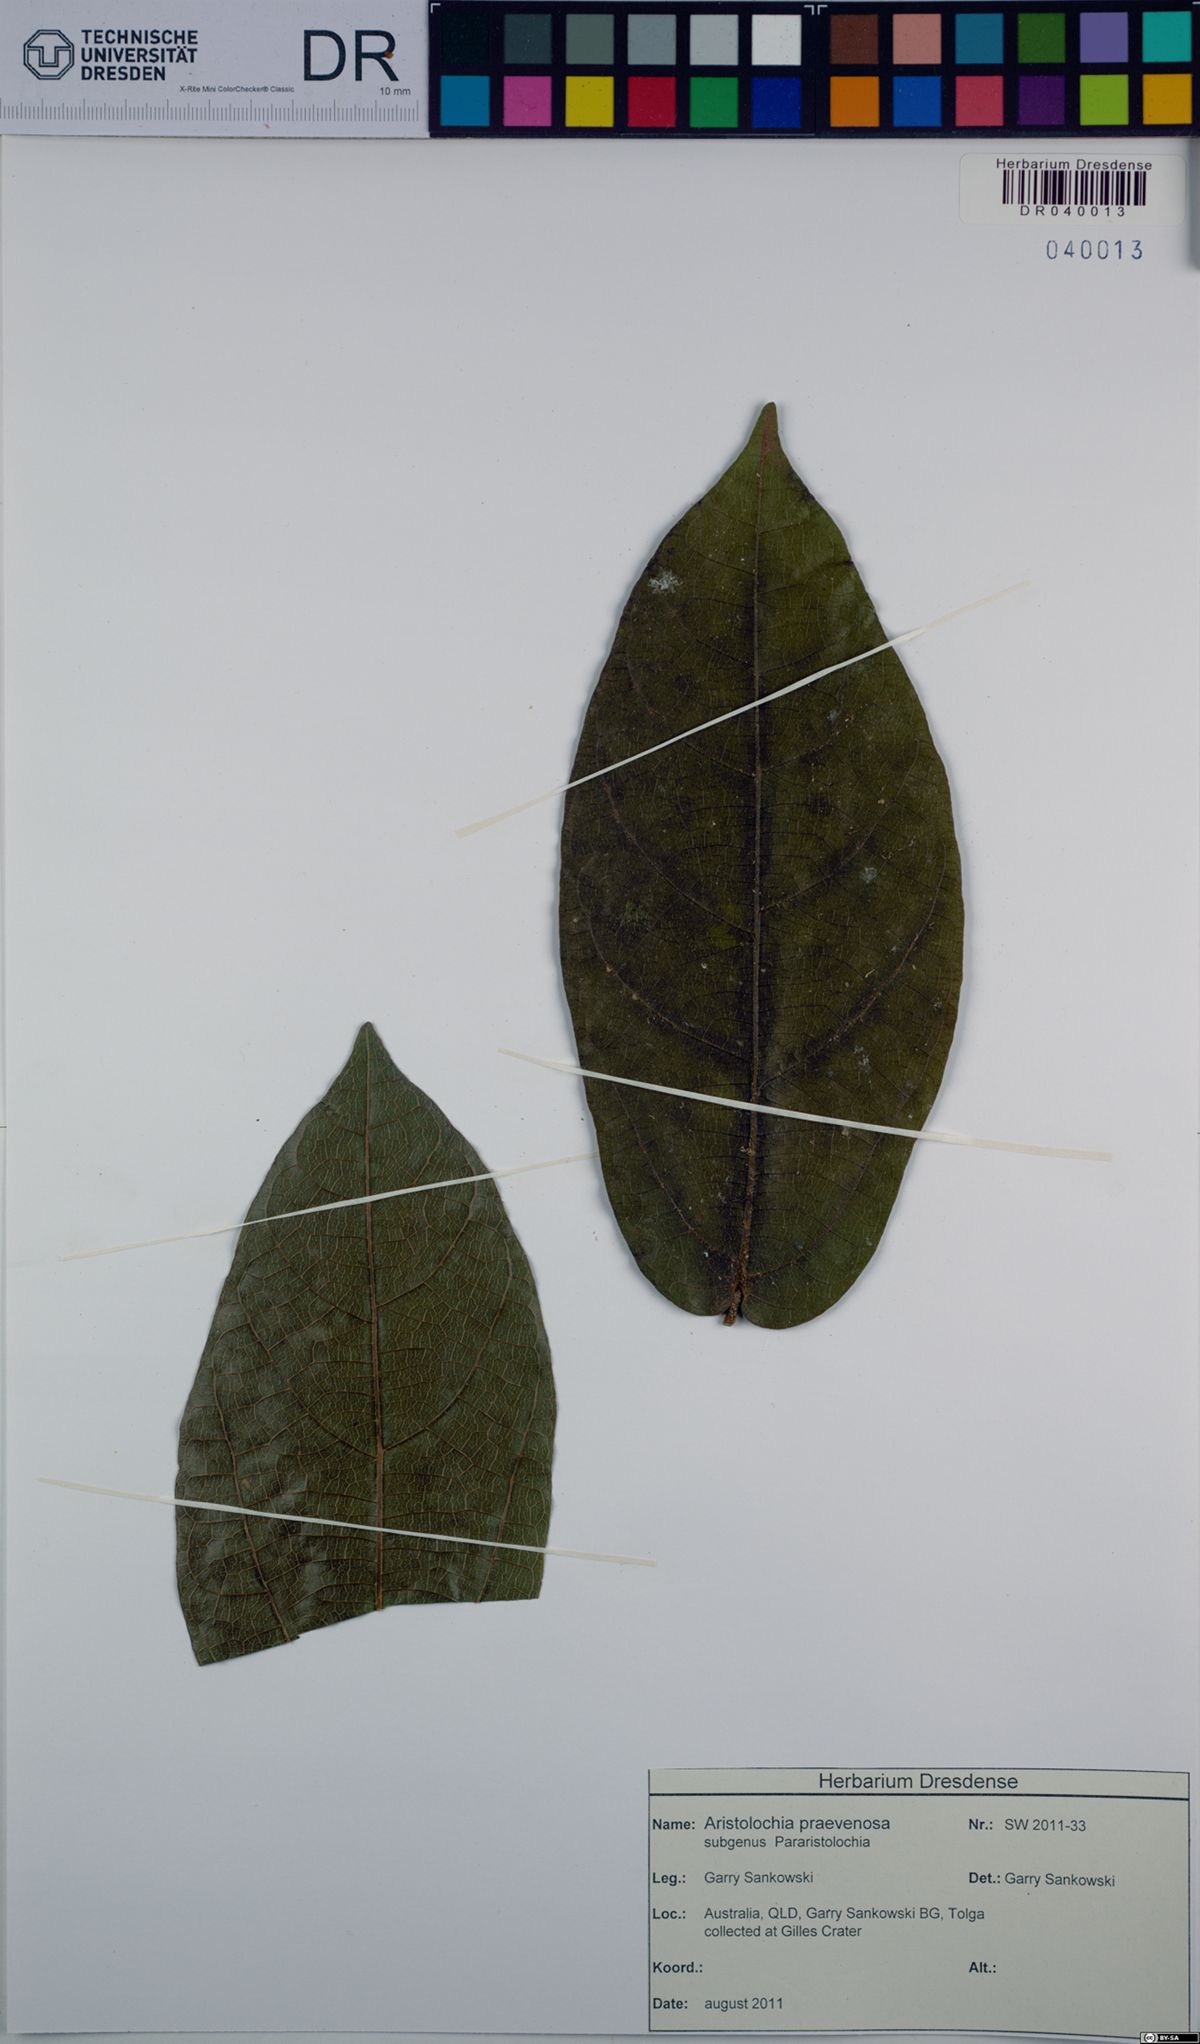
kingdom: Plantae
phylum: Tracheophyta
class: Magnoliopsida
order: Piperales
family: Aristolochiaceae
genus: Aristolochia
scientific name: Aristolochia praevenosa
